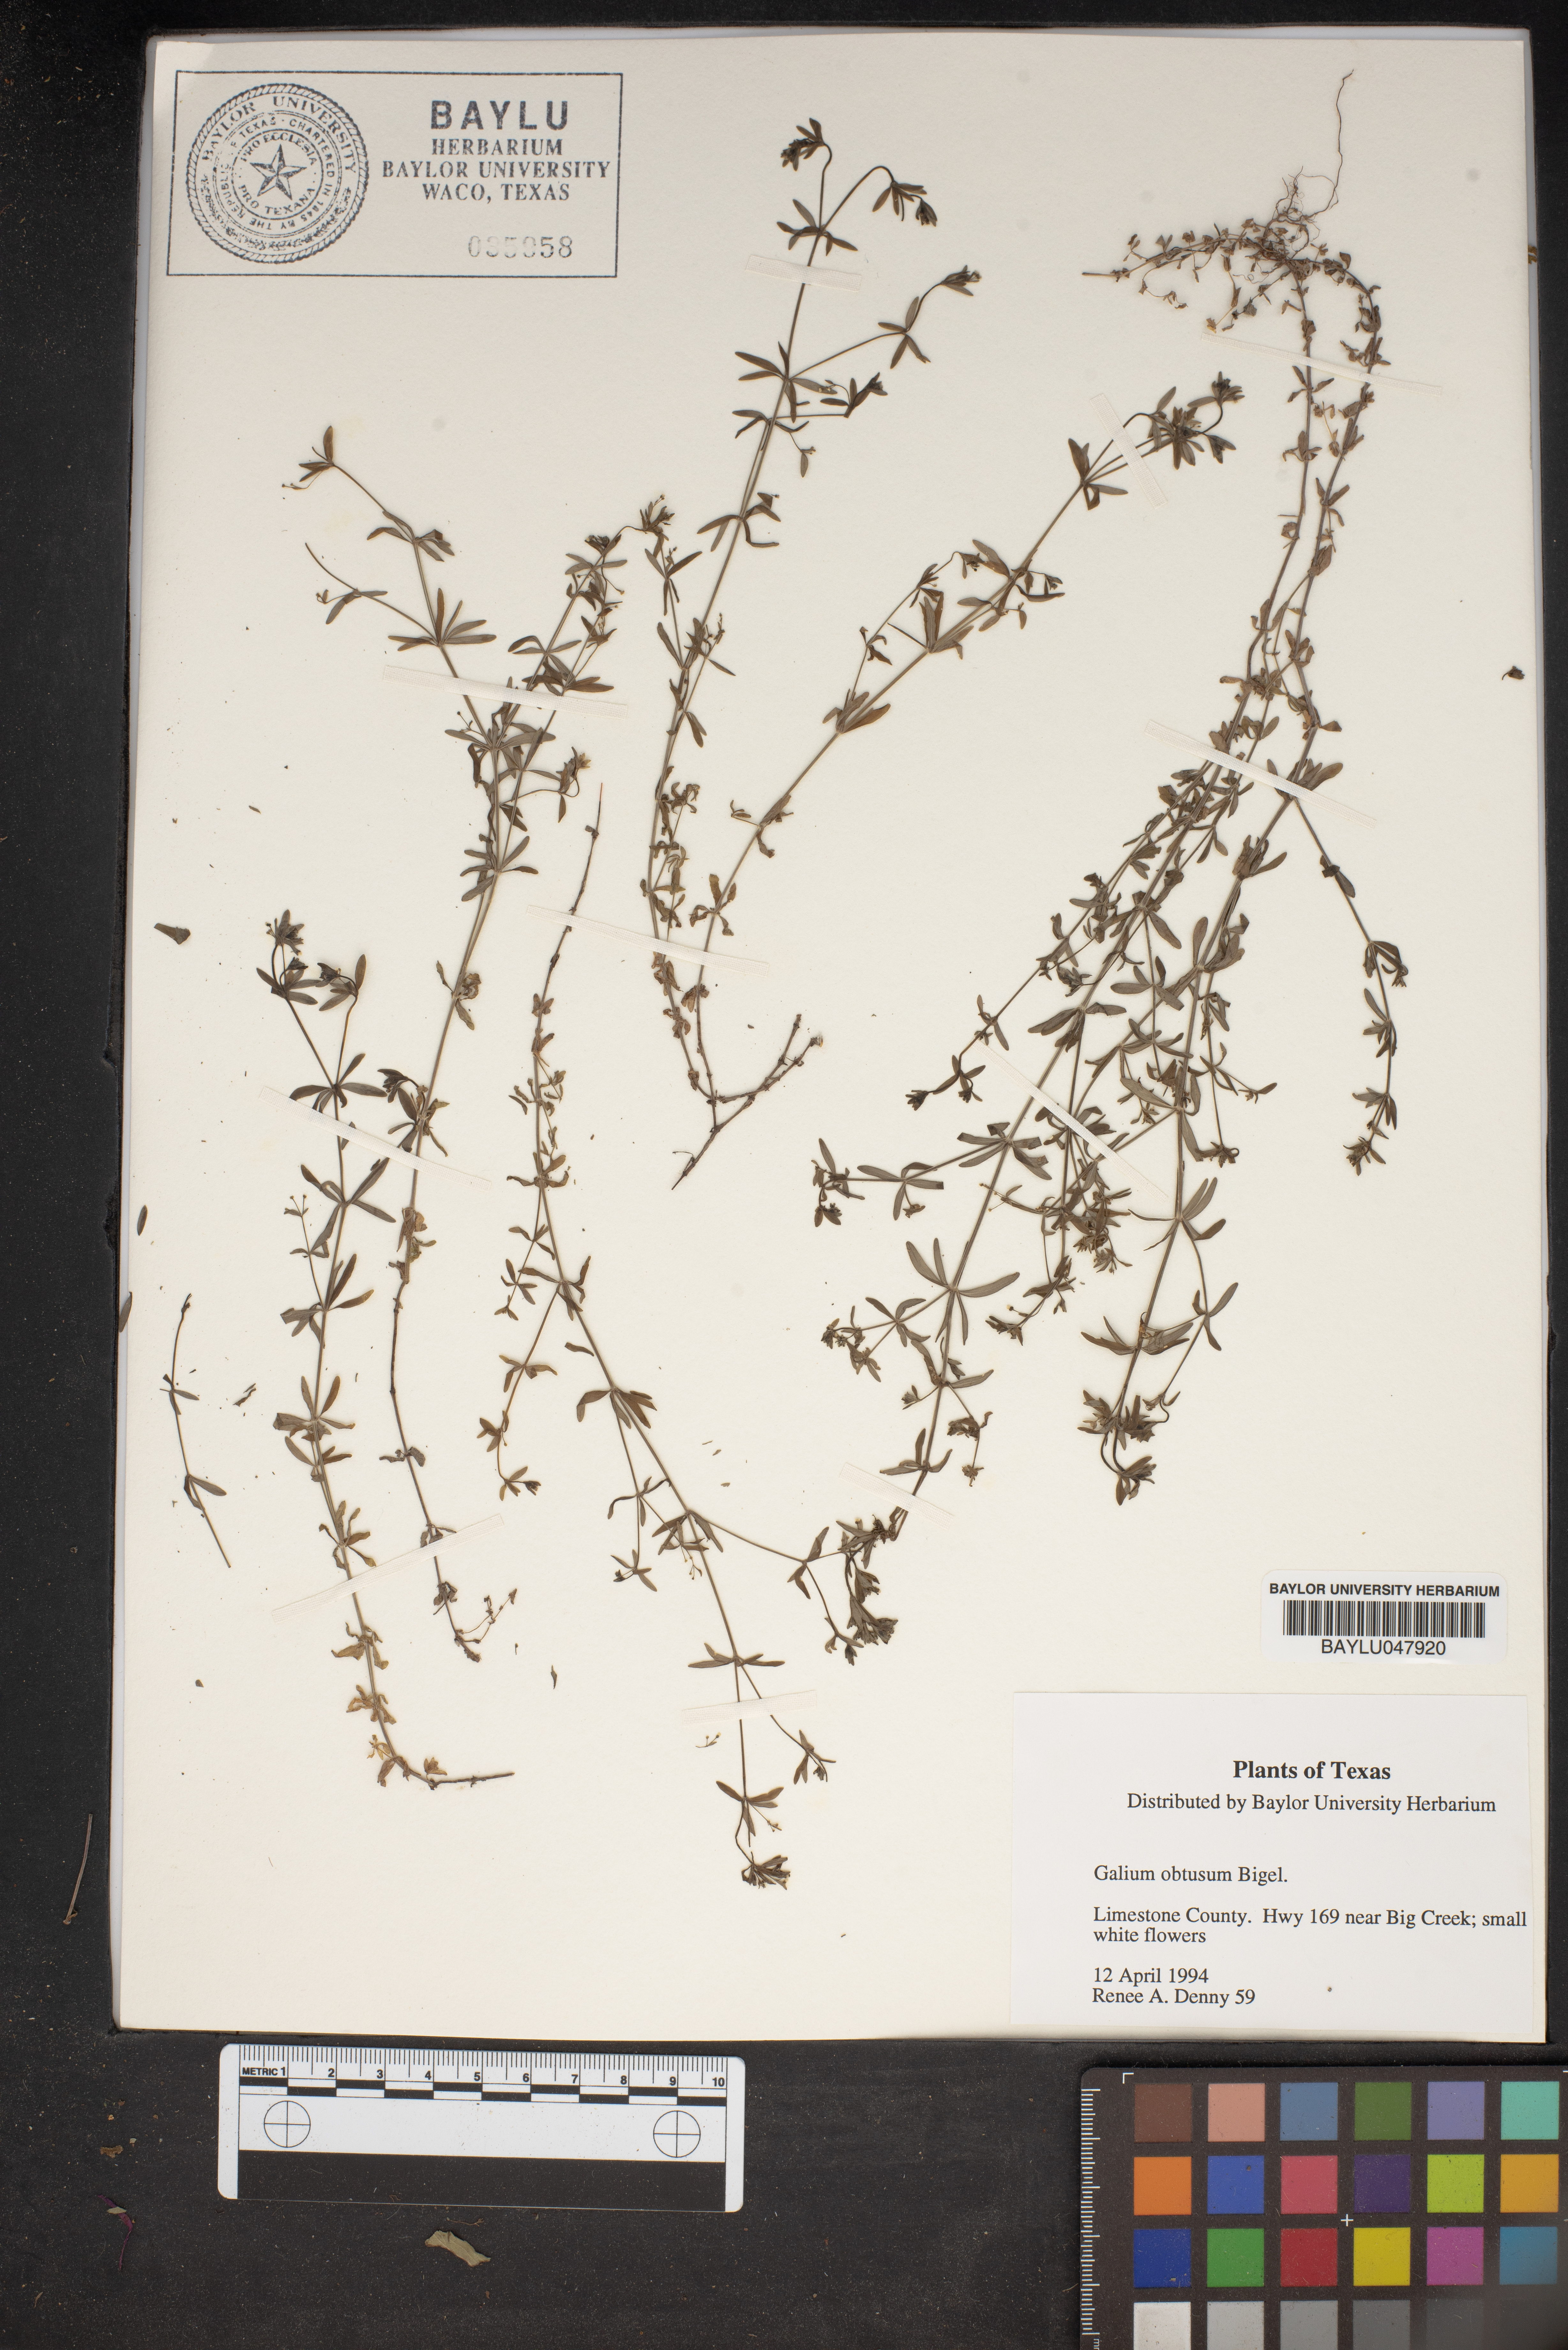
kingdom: Plantae
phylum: Tracheophyta
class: Magnoliopsida
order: Gentianales
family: Rubiaceae
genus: Galium
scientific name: Galium obtusum
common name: Blunt-leaved bedstraw
